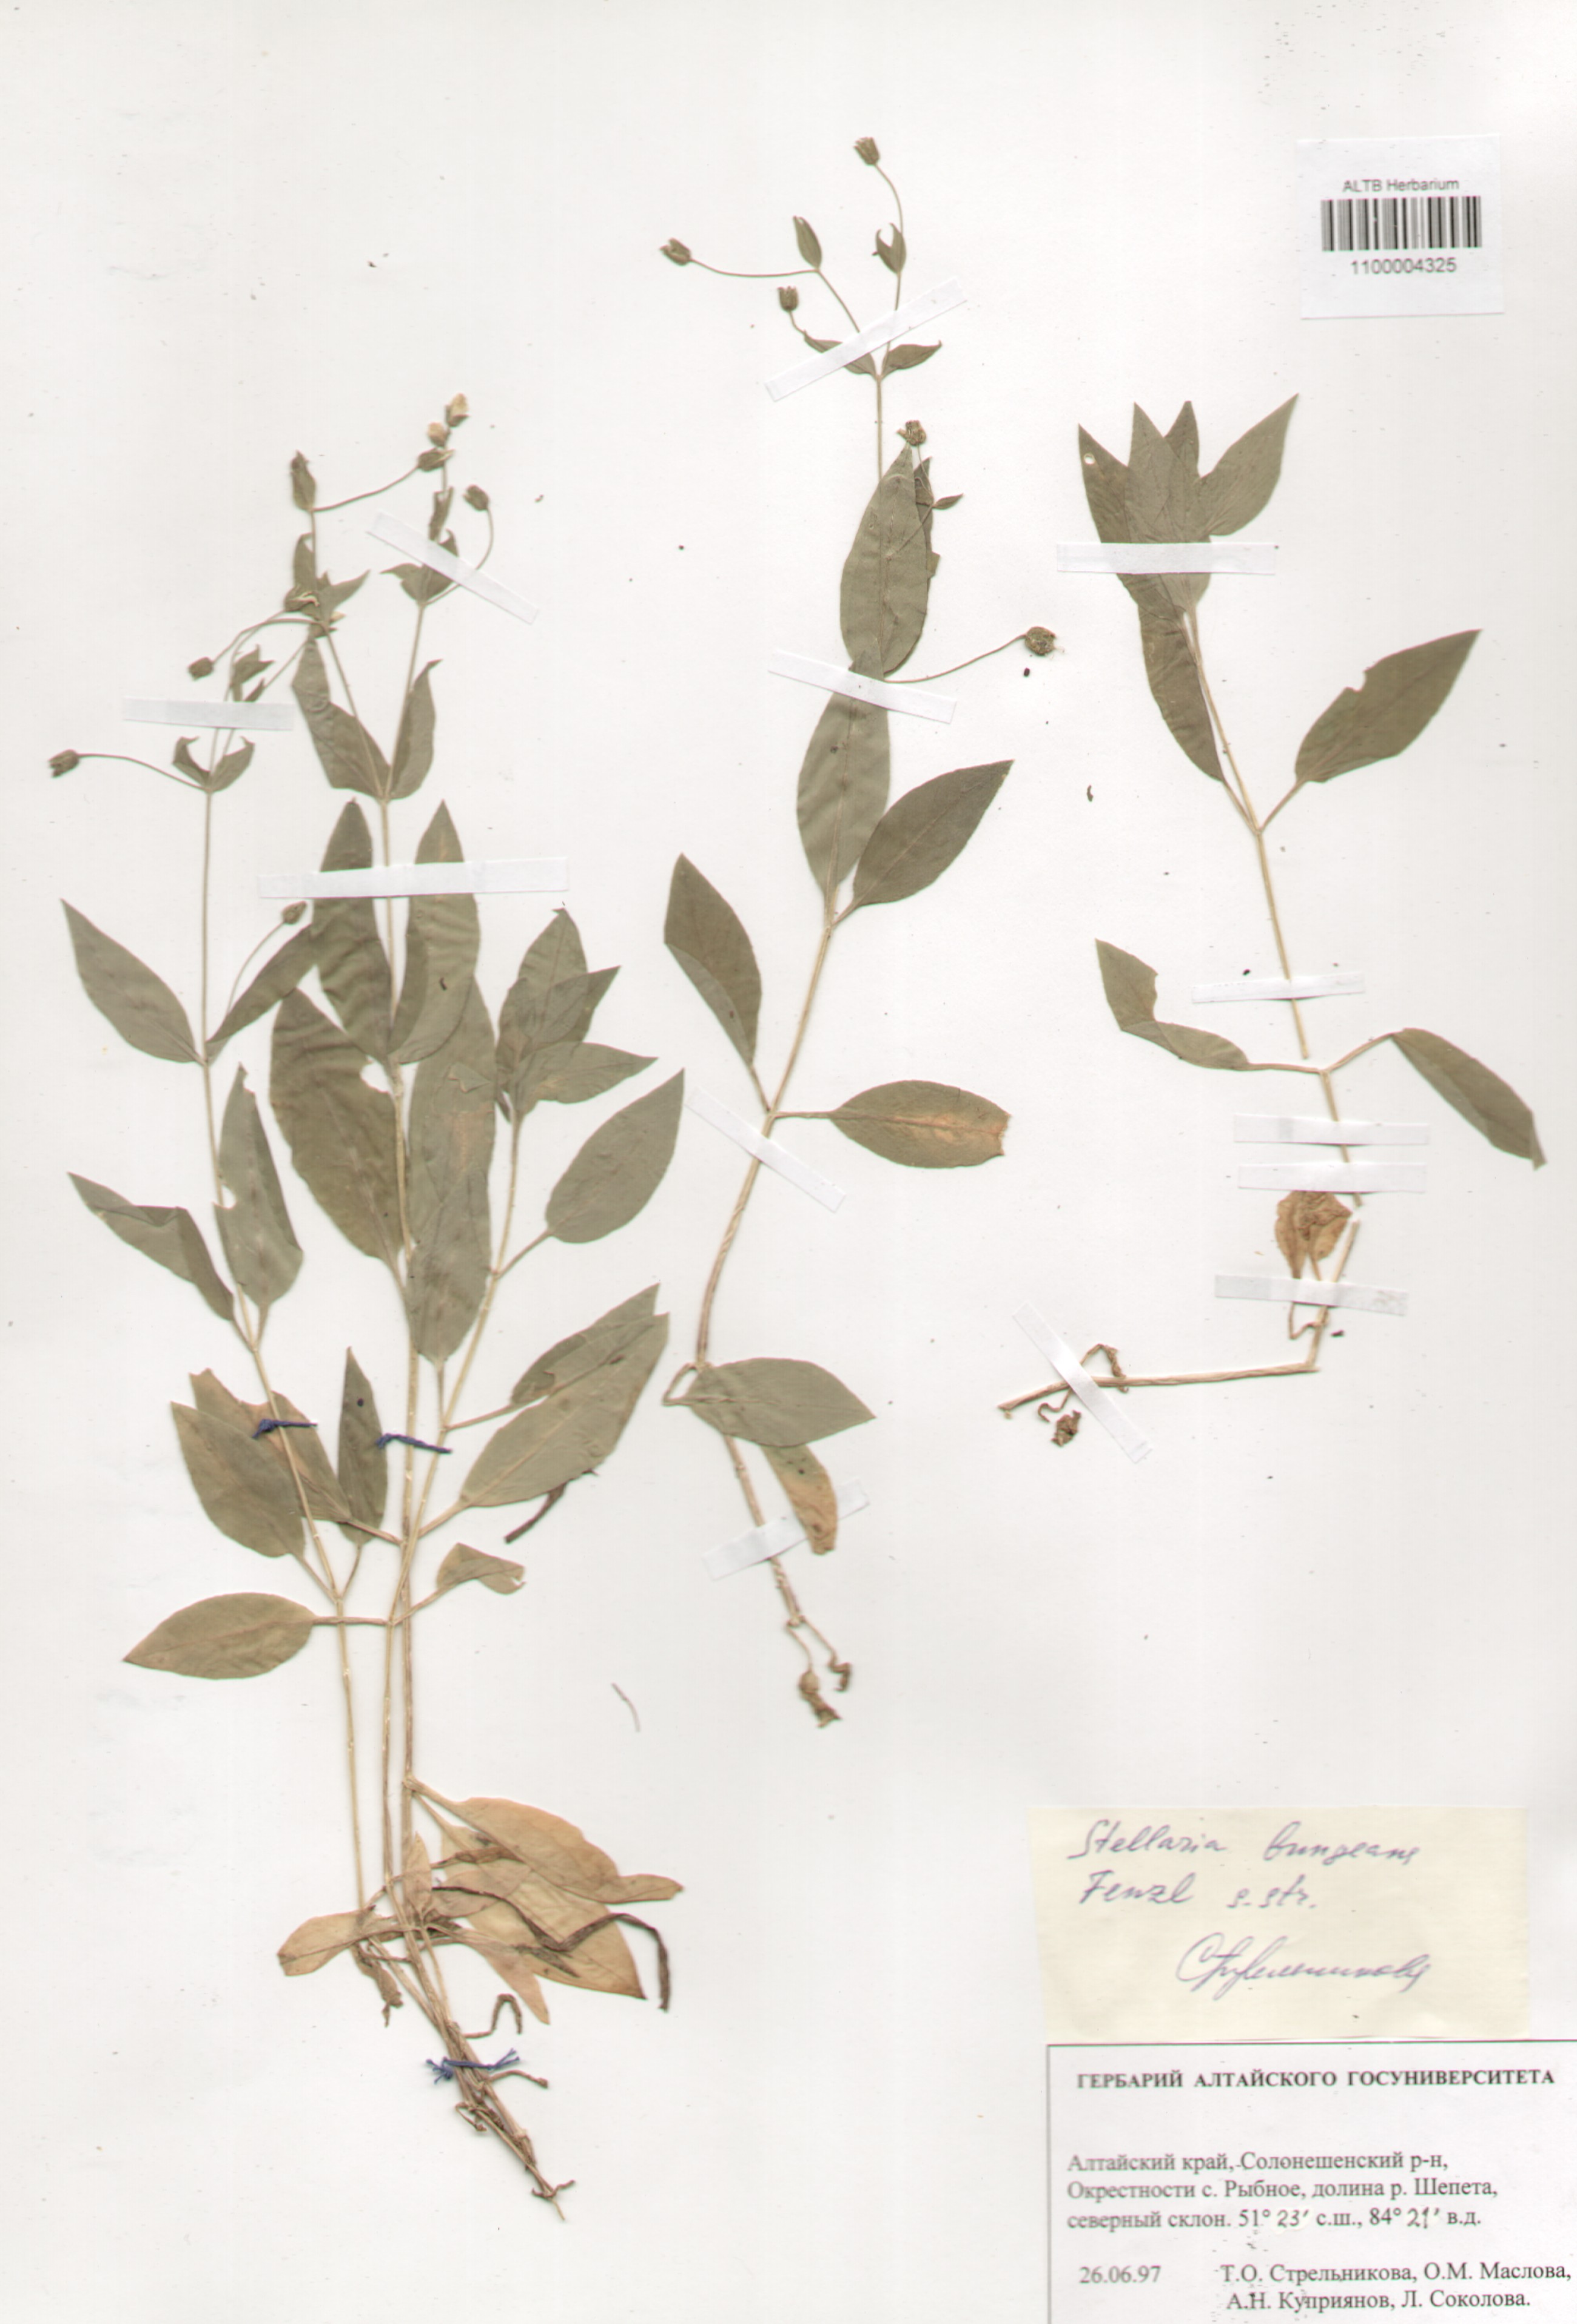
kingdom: Plantae
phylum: Tracheophyta
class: Magnoliopsida
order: Caryophyllales
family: Caryophyllaceae
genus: Stellaria
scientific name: Stellaria bungeana
